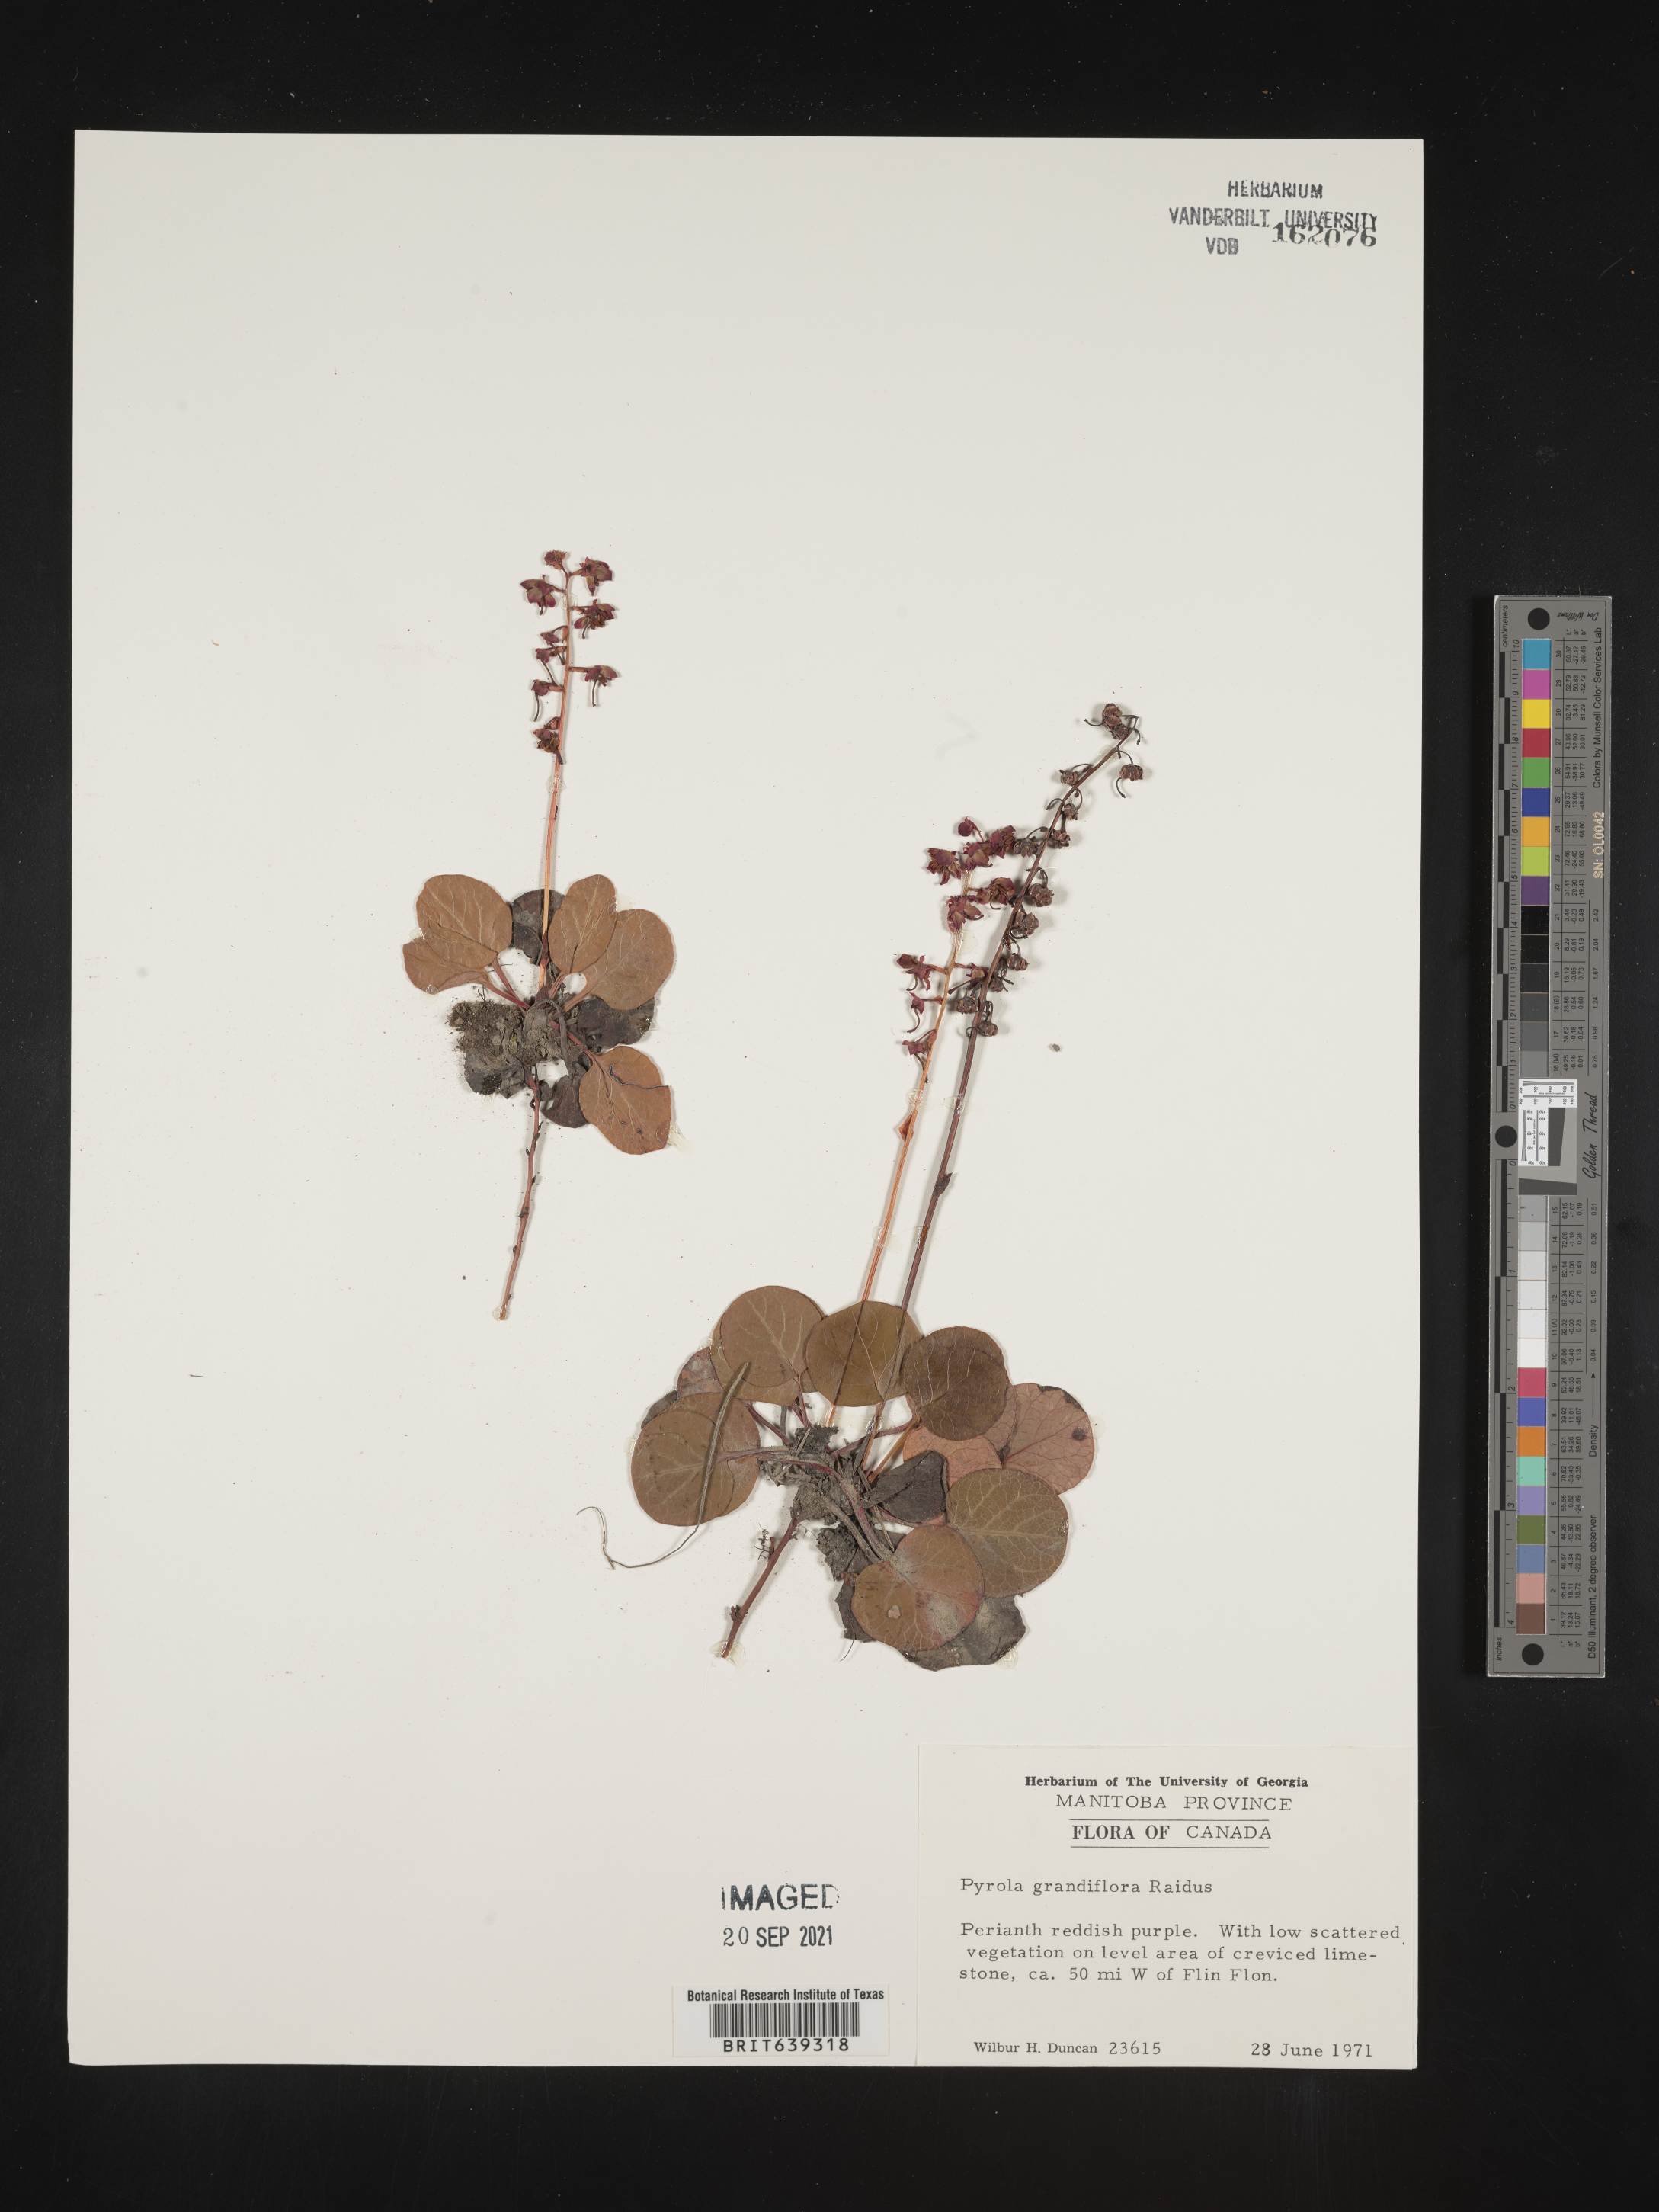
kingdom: Plantae
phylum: Tracheophyta
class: Magnoliopsida
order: Ericales
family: Ericaceae
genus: Pyrola
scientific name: Pyrola
